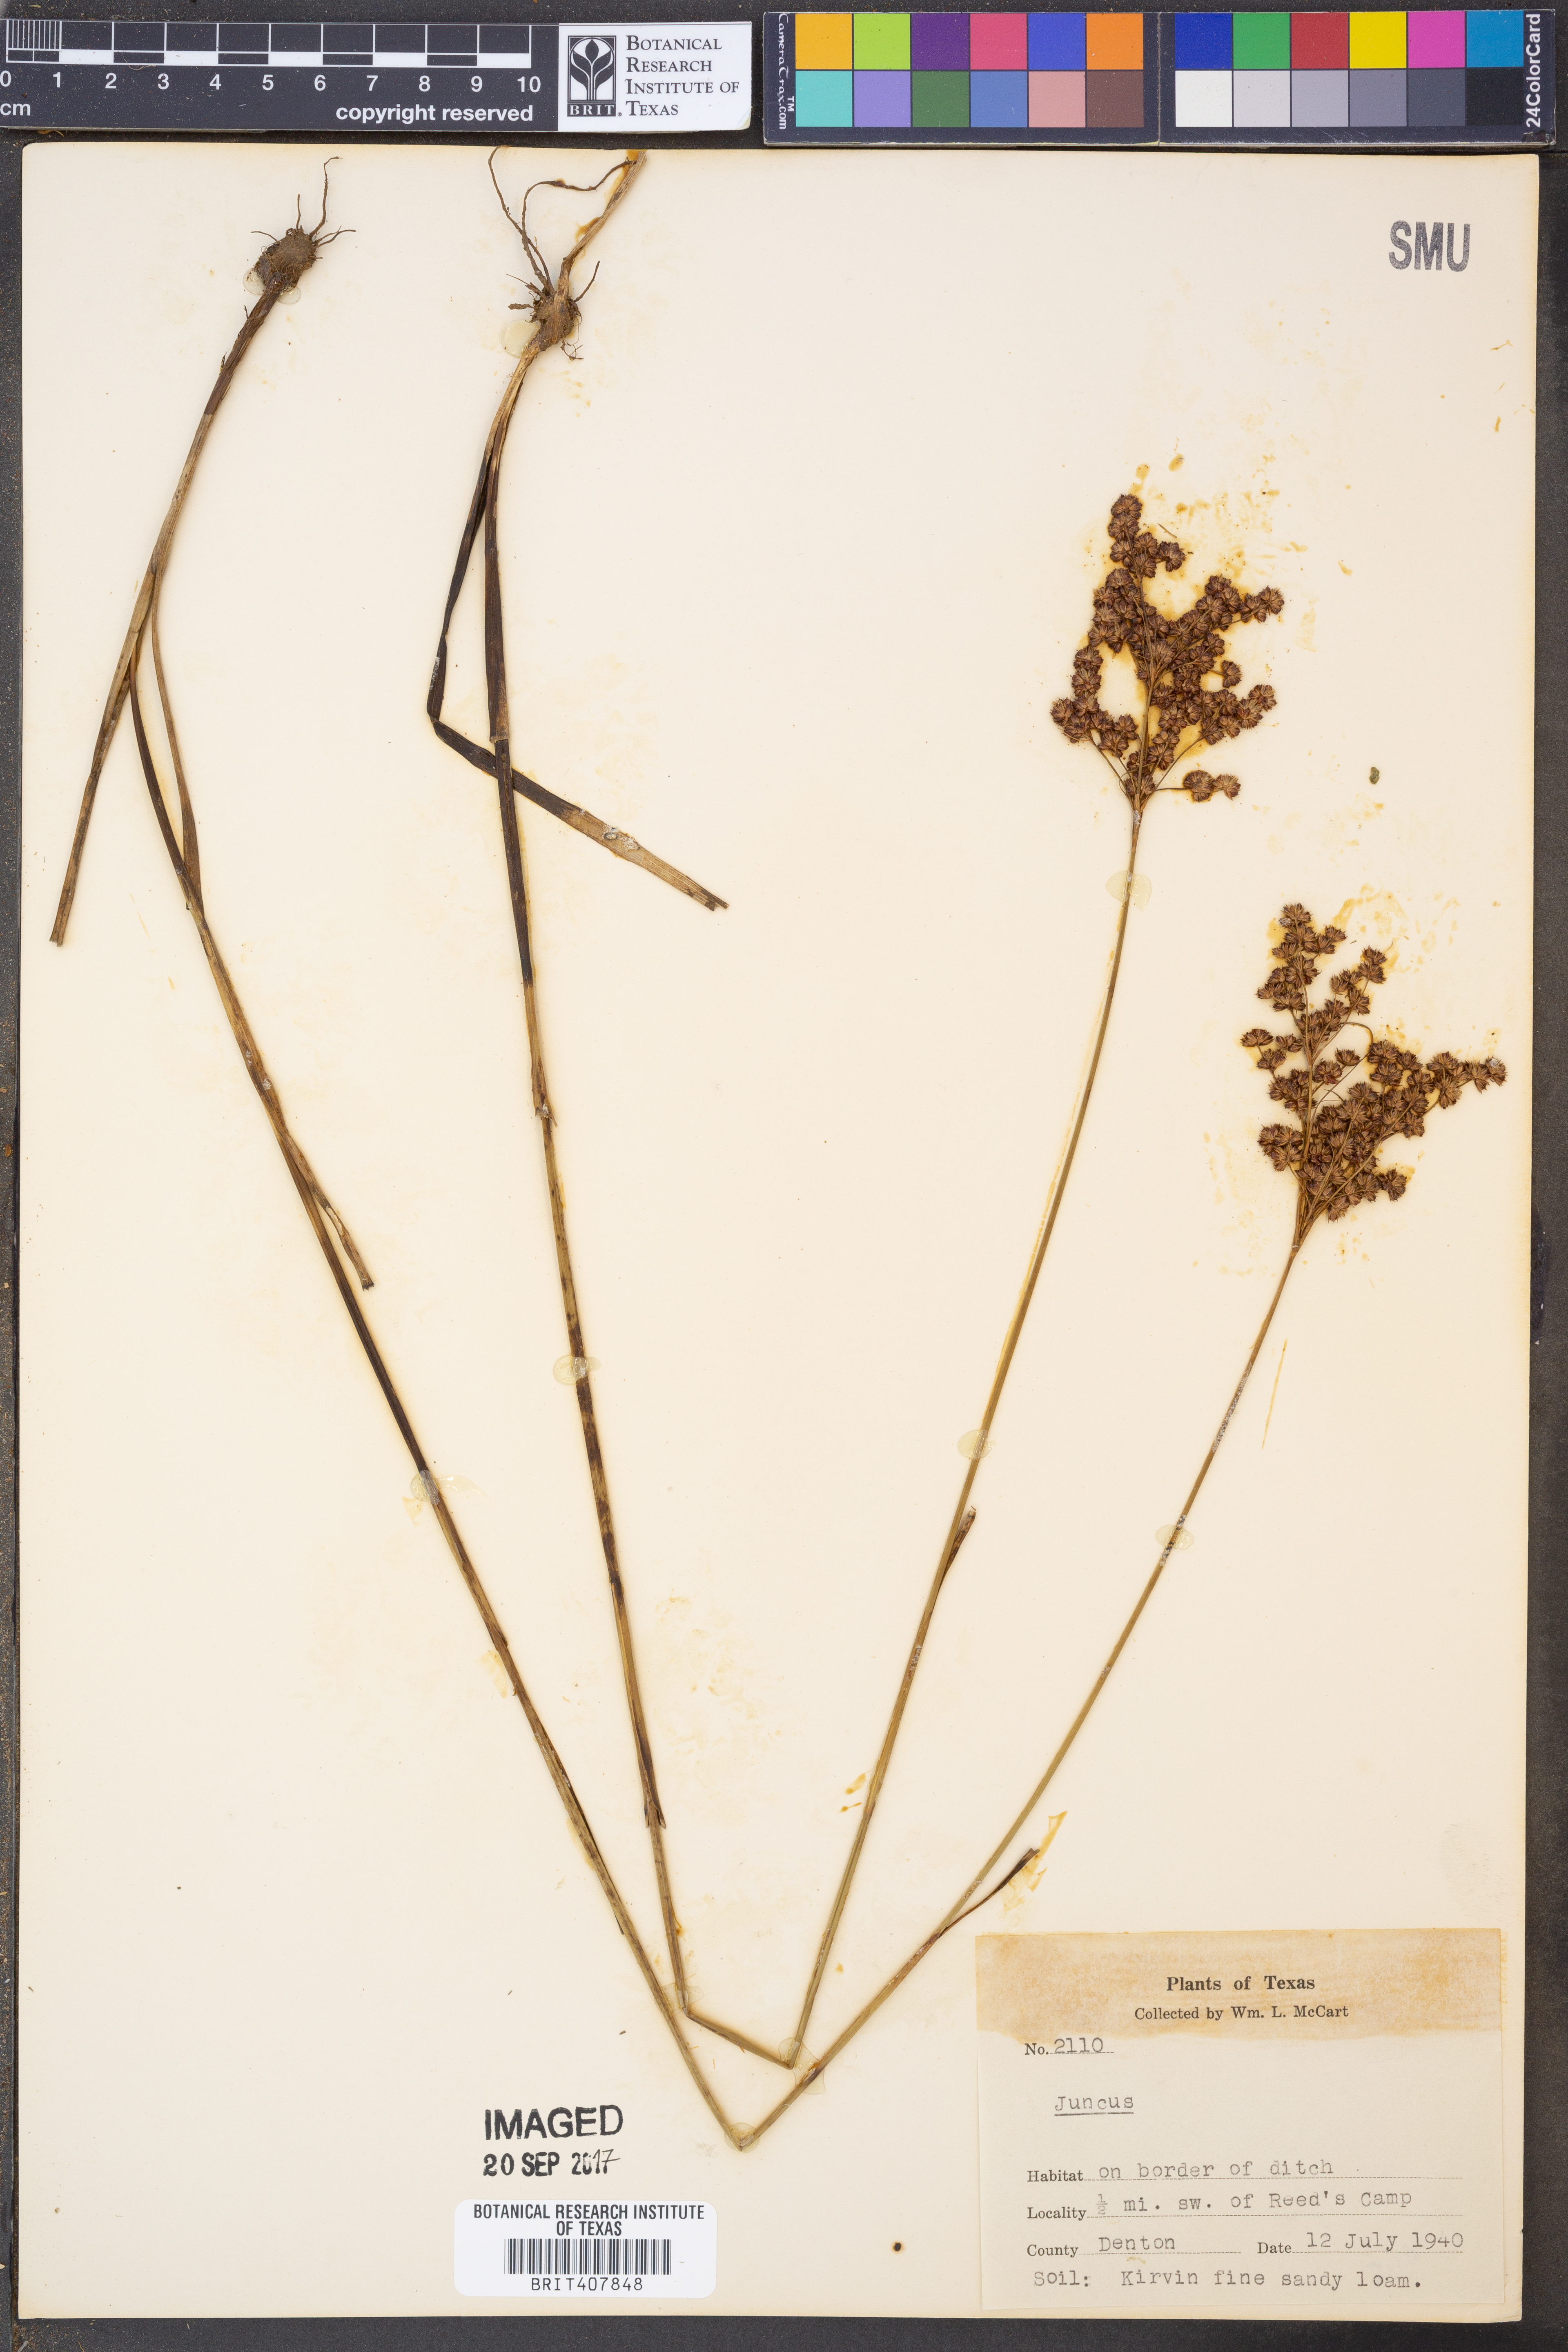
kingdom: Plantae
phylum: Tracheophyta
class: Liliopsida
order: Poales
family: Juncaceae
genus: Juncus
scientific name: Juncus
